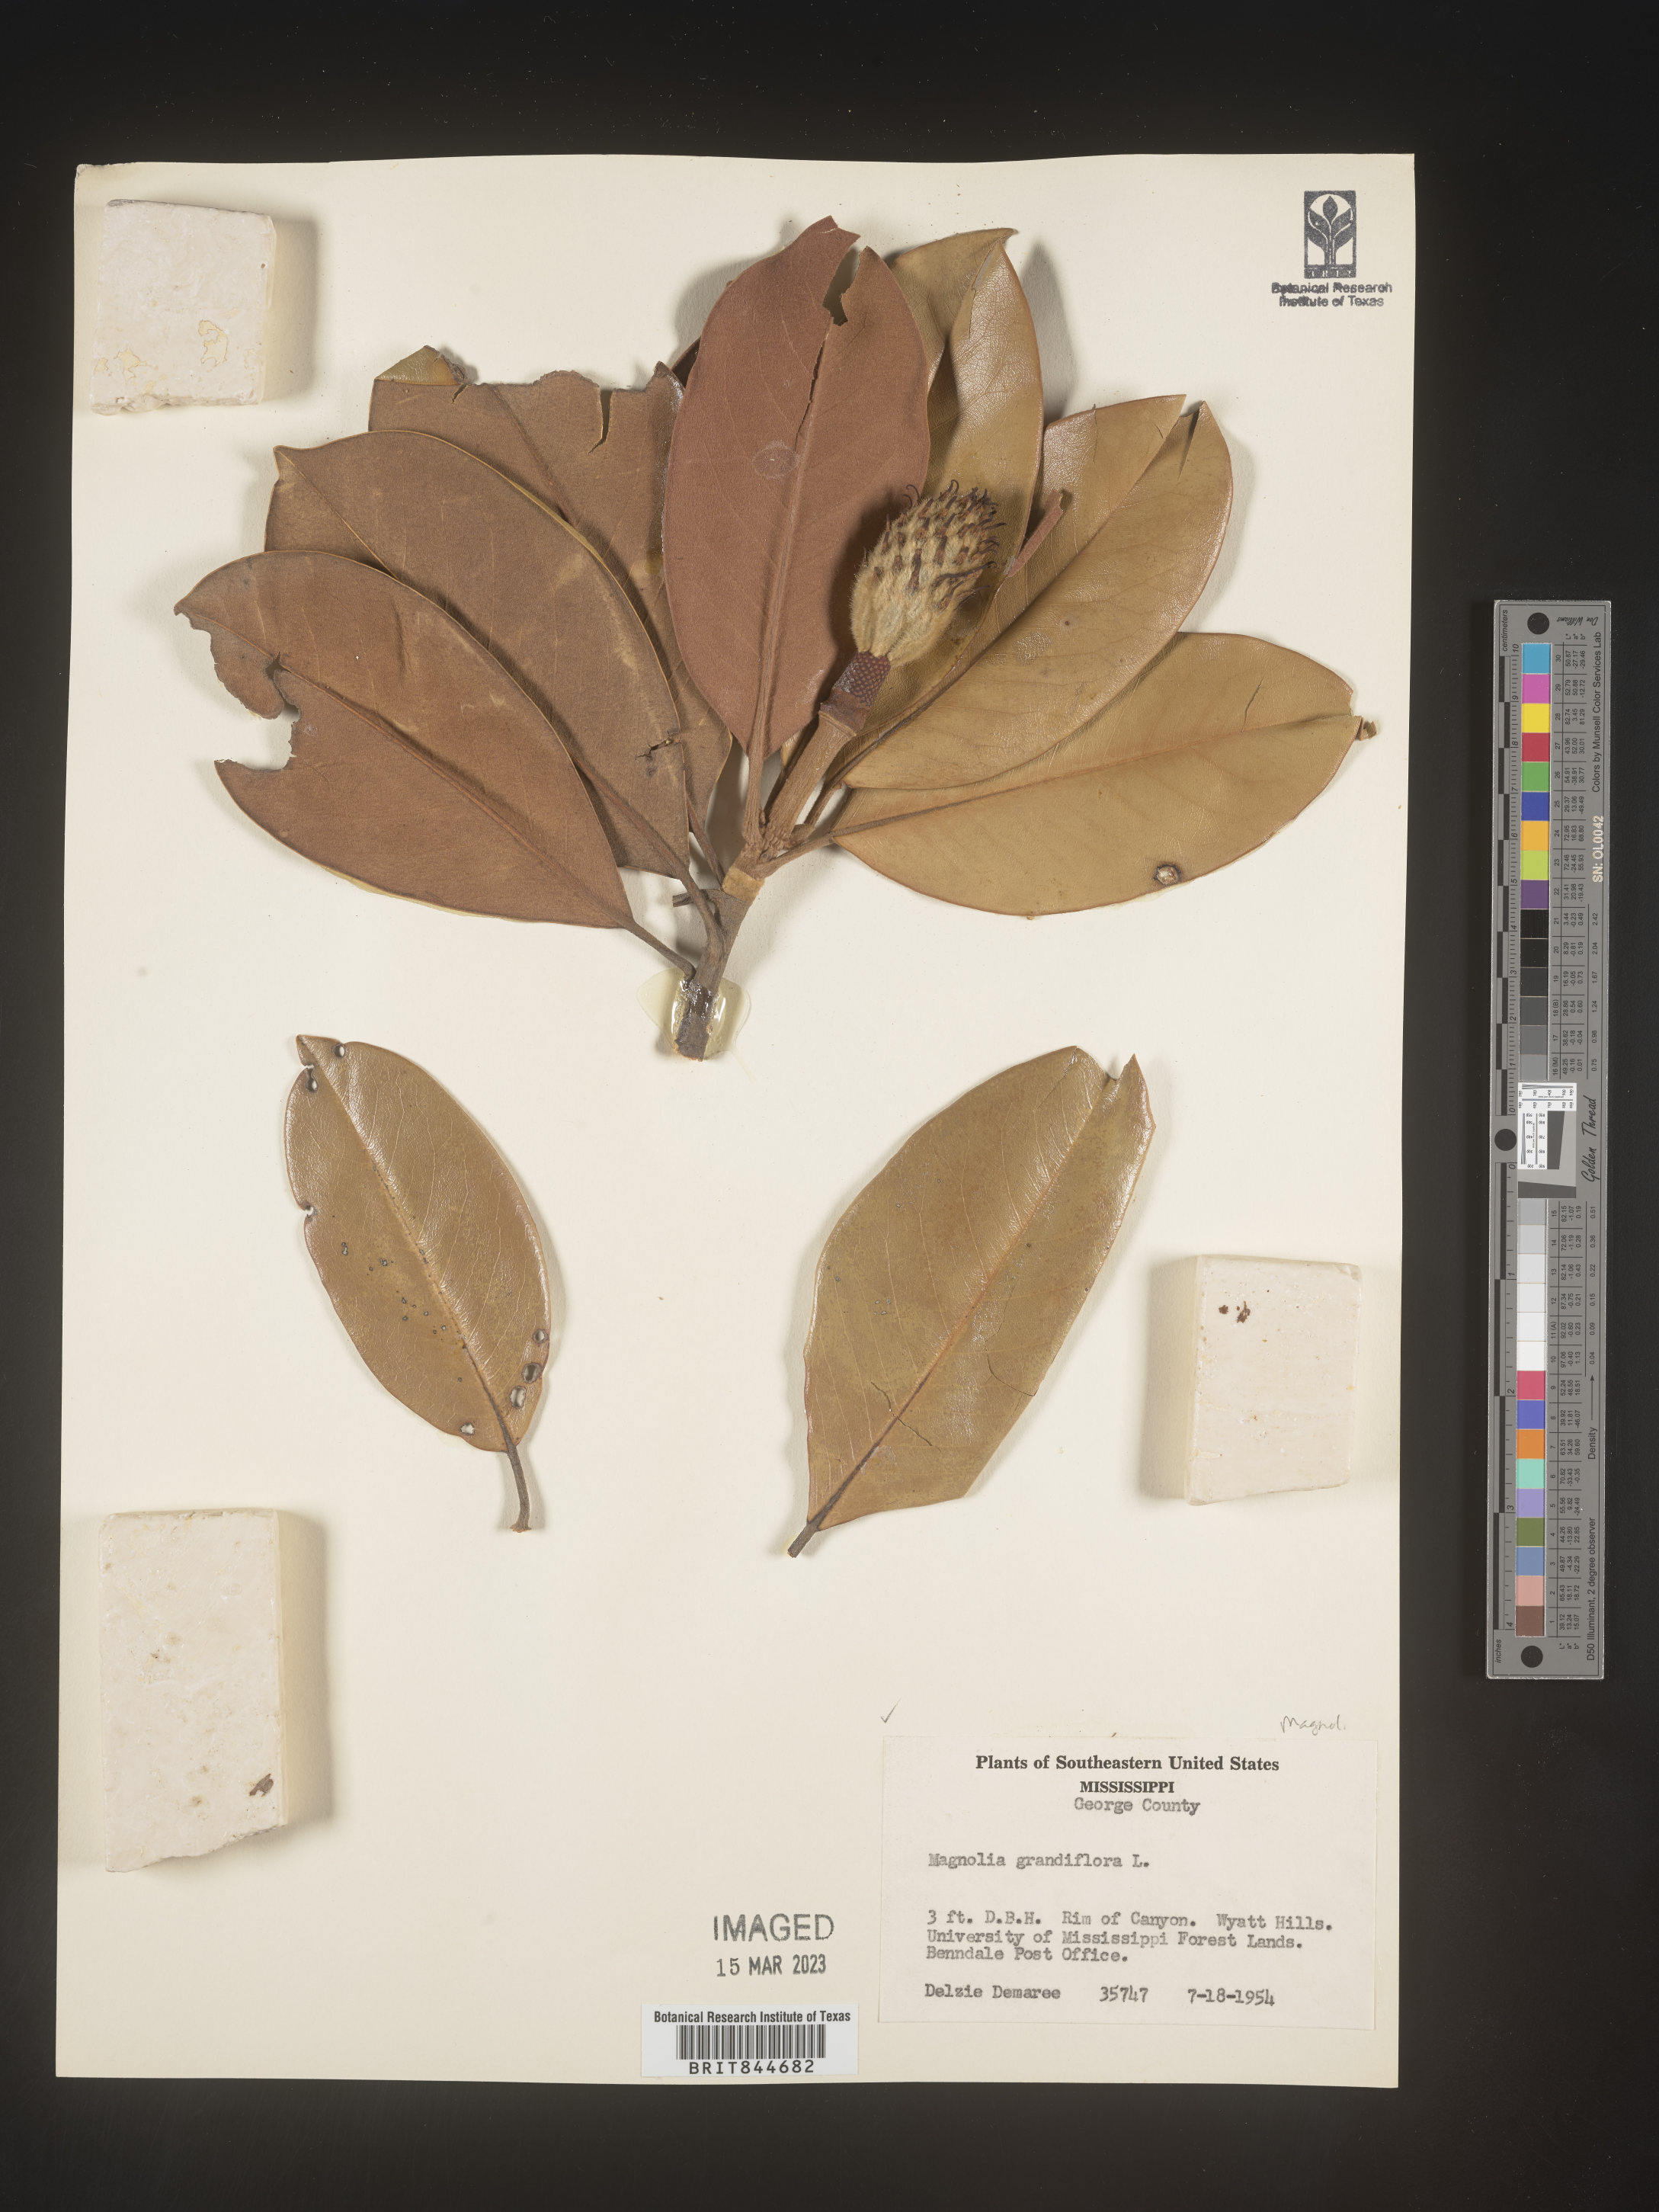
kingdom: Plantae
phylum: Tracheophyta
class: Magnoliopsida
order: Magnoliales
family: Magnoliaceae
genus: Magnolia
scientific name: Magnolia grandiflora
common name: Southern magnolia
